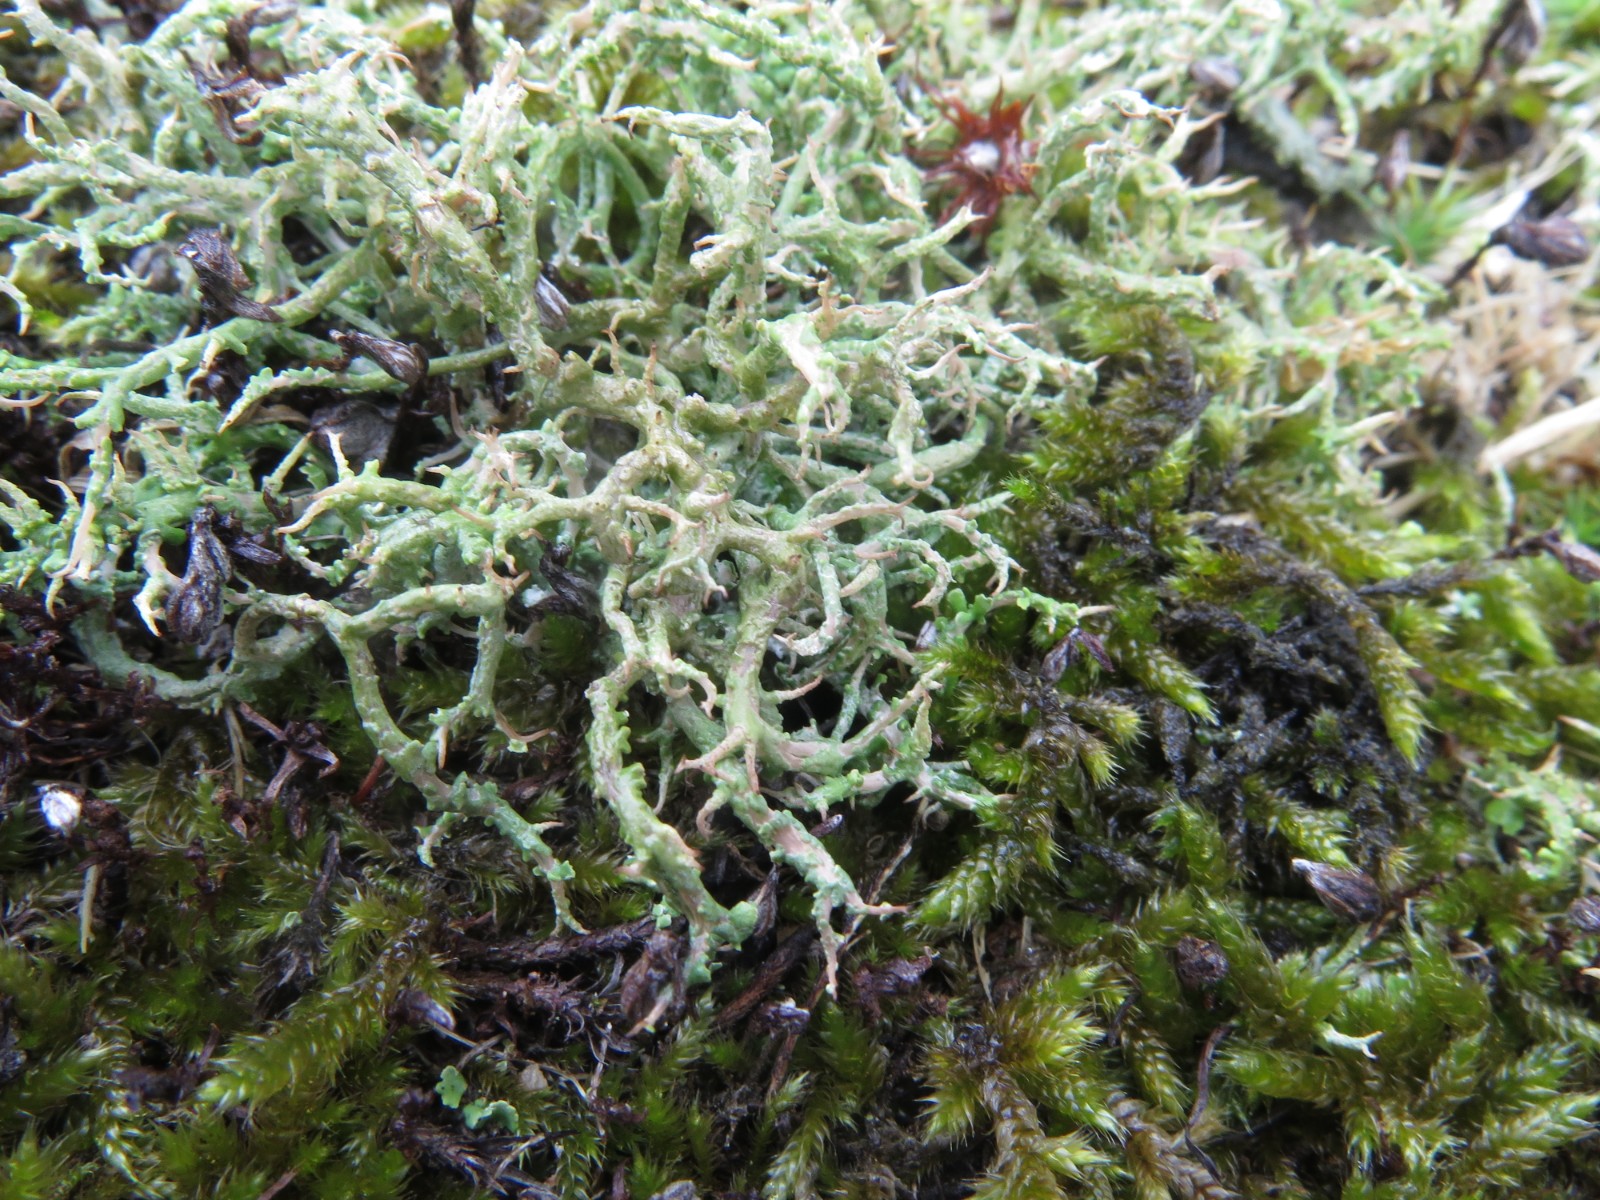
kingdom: Fungi
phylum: Ascomycota
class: Lecanoromycetes
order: Lecanorales
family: Cladoniaceae
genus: Cladonia
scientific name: Cladonia scabriuscula
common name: ru bægerlav
